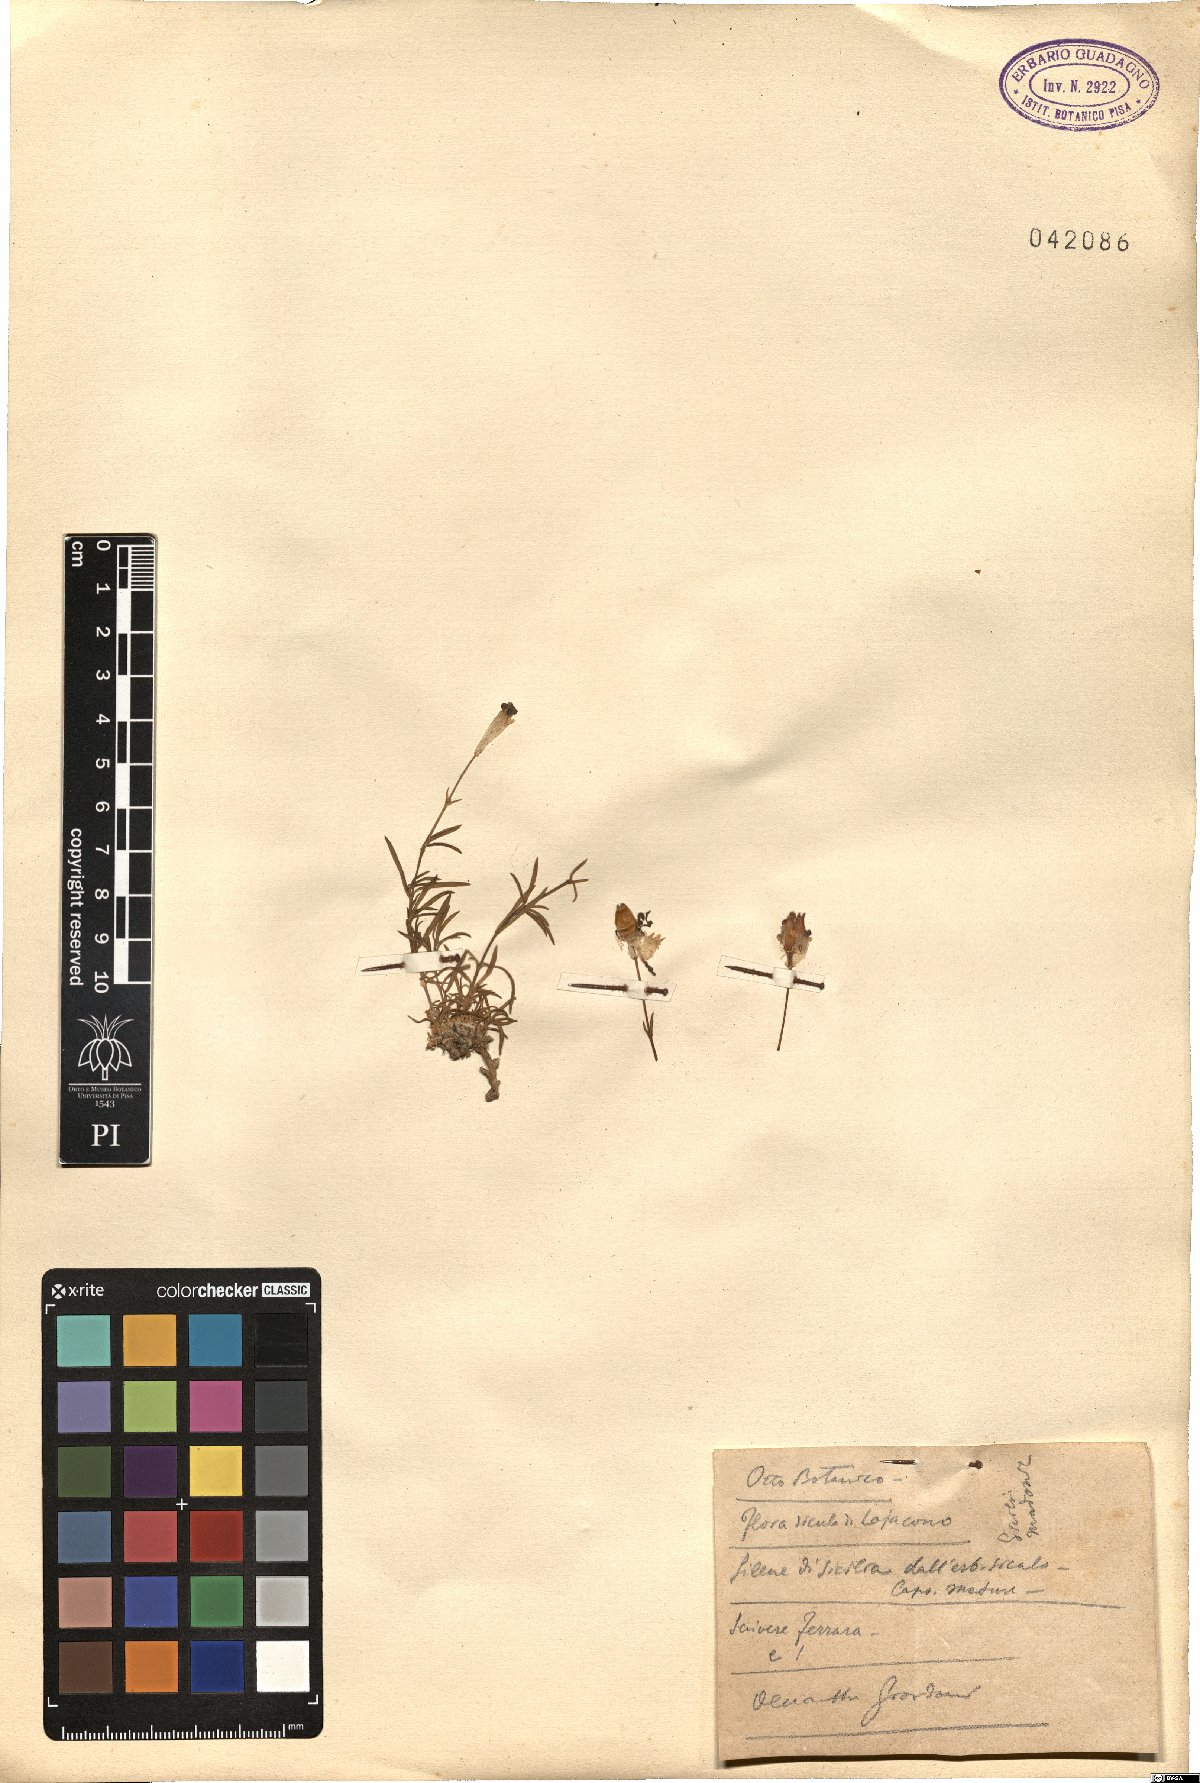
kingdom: Plantae
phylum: Tracheophyta
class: Magnoliopsida
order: Caryophyllales
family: Caryophyllaceae
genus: Silene
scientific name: Silene
